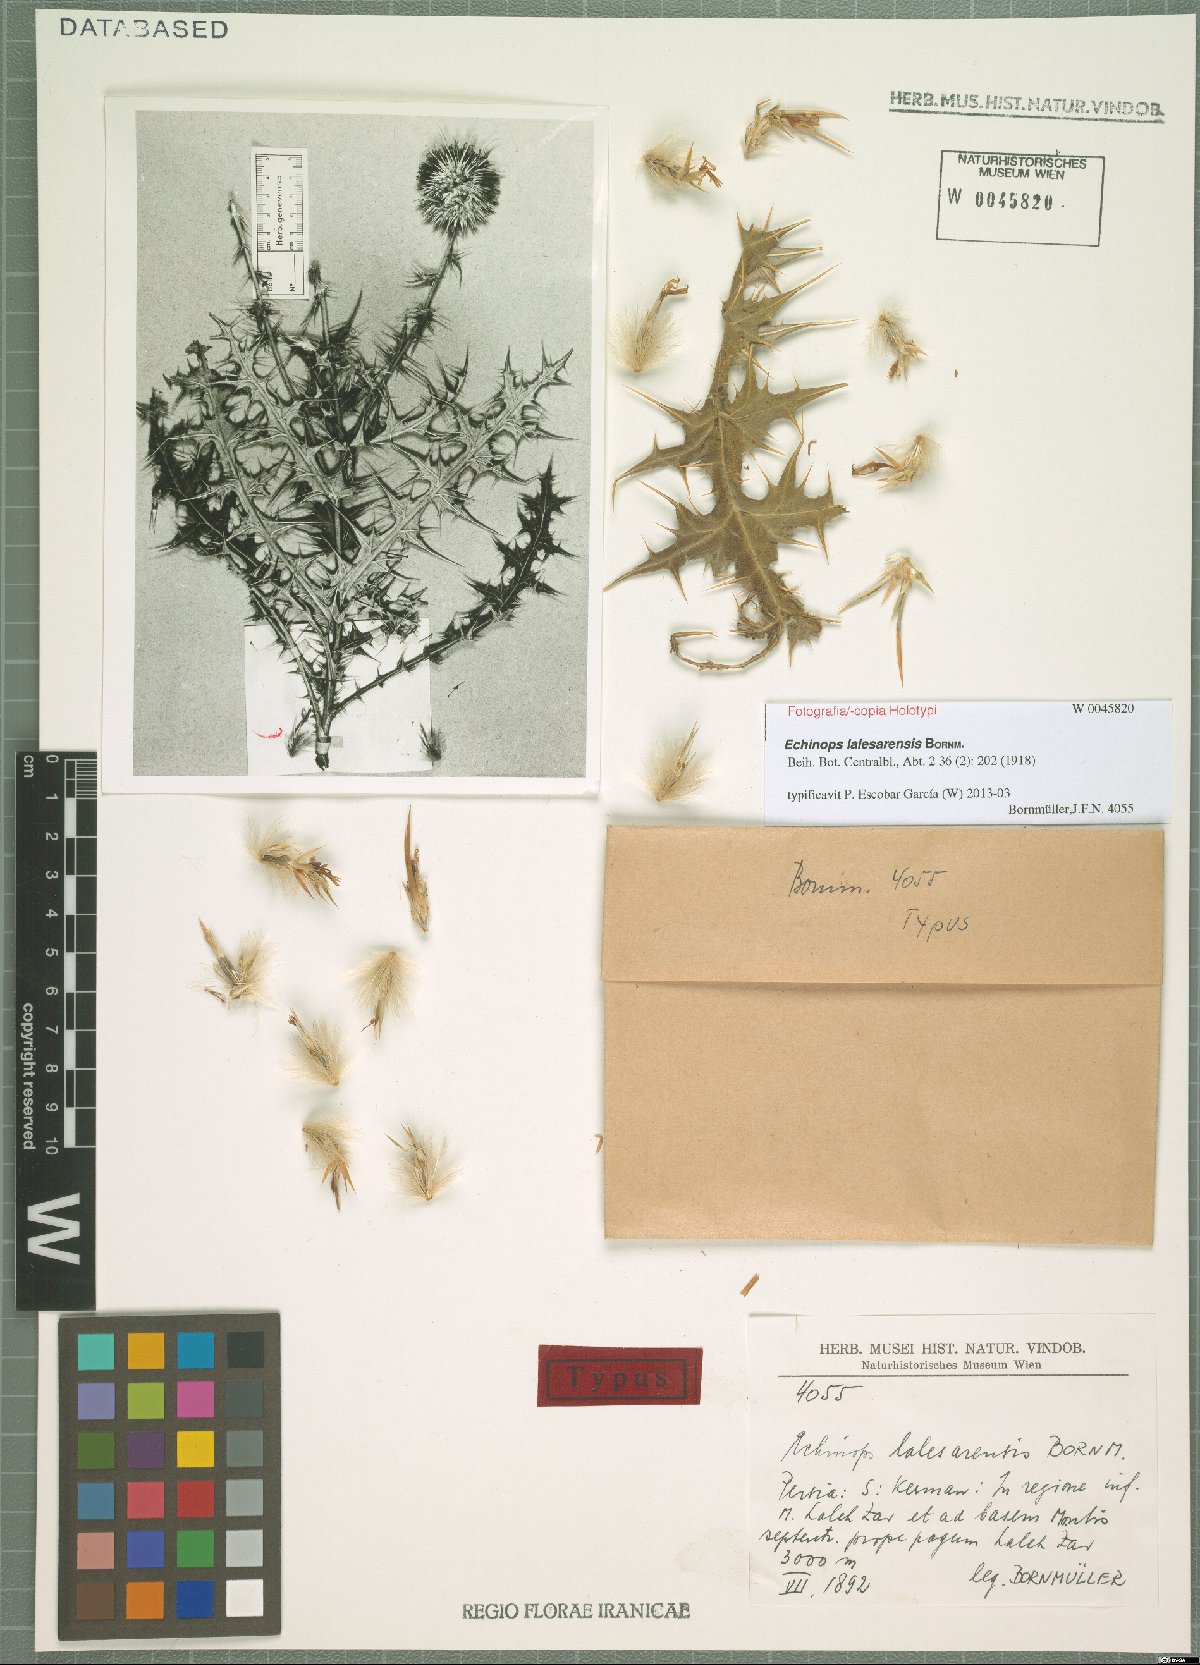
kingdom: Plantae
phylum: Tracheophyta
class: Magnoliopsida
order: Asterales
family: Asteraceae
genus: Echinops
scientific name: Echinops lalesarensis
